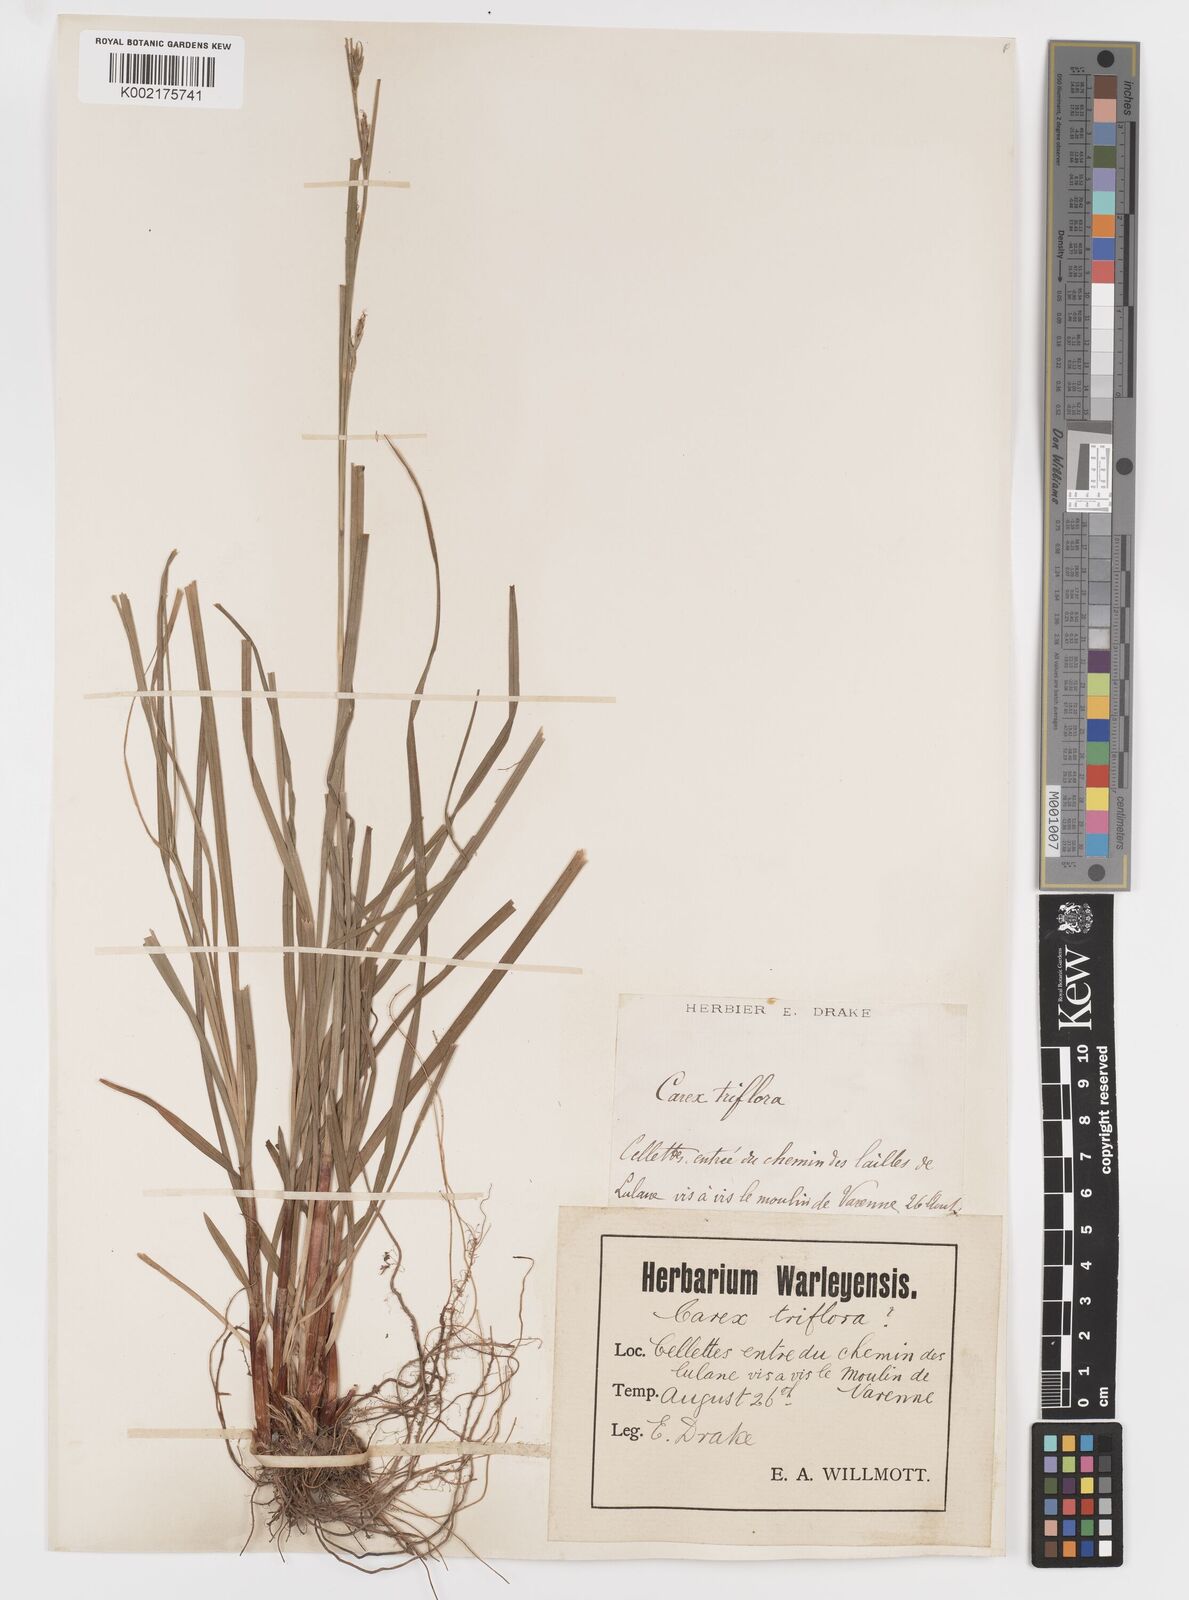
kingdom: Plantae
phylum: Tracheophyta
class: Liliopsida
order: Poales
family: Cyperaceae
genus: Carex
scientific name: Carex
